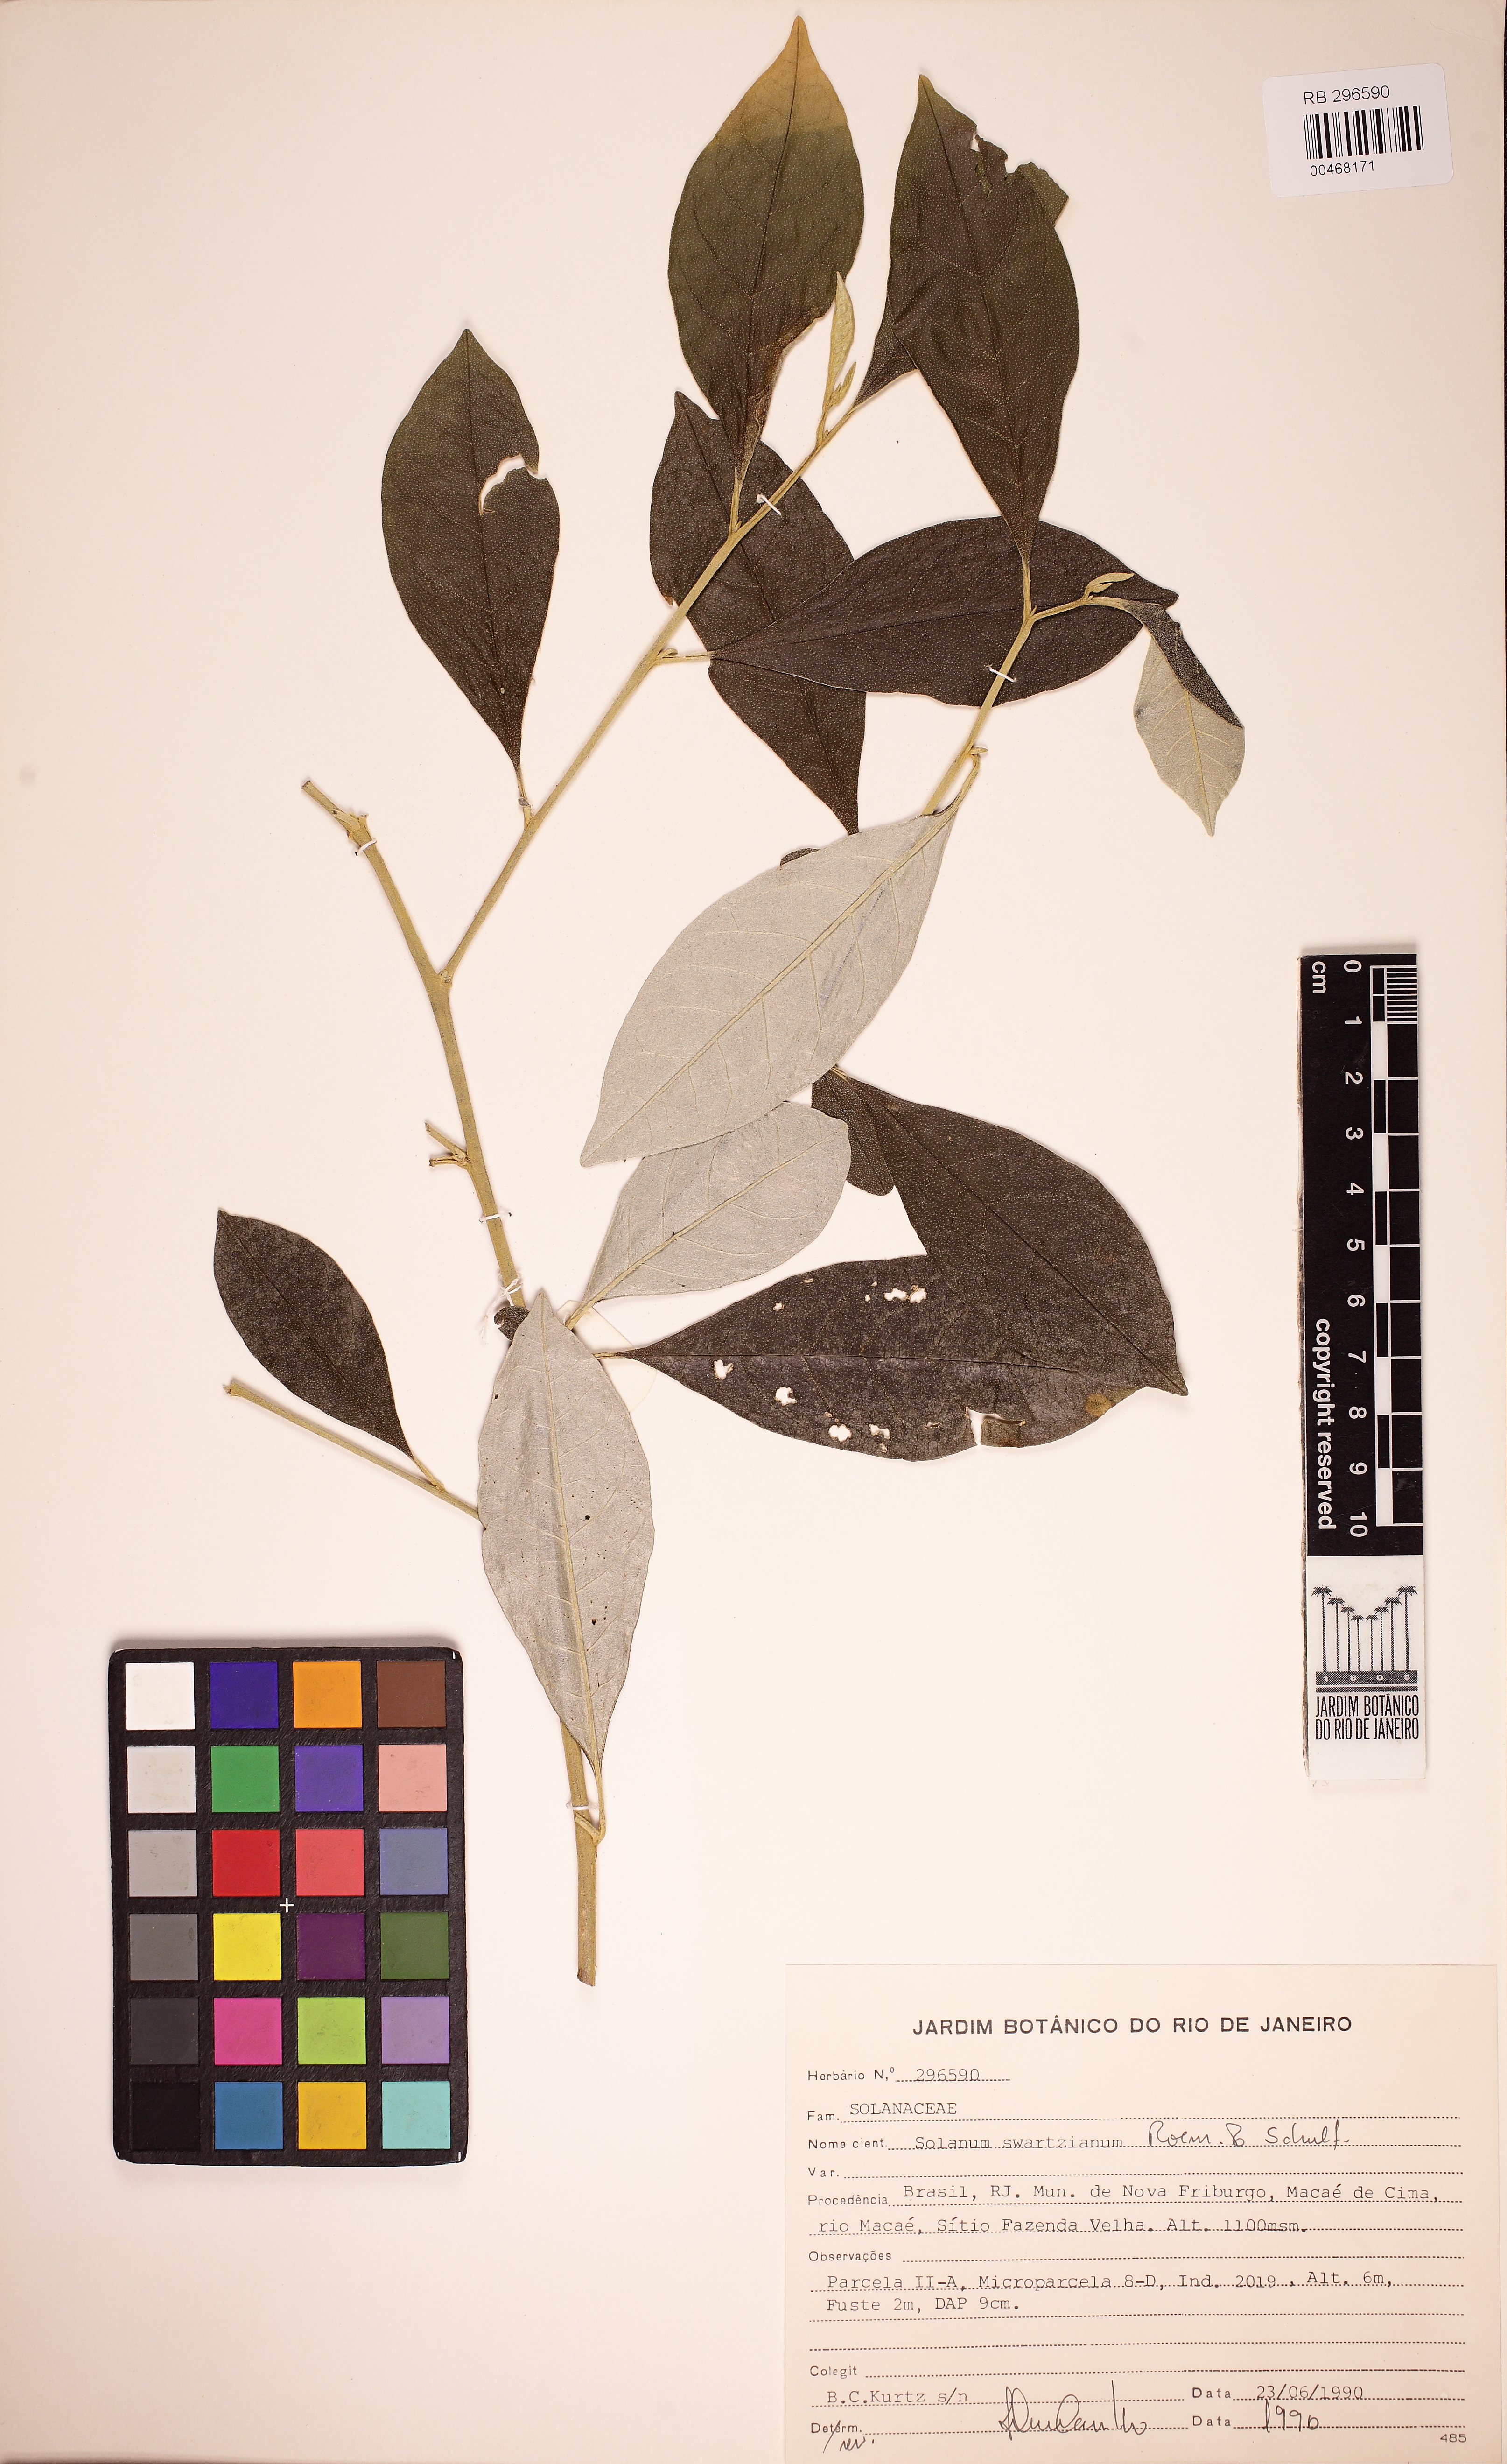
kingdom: Plantae
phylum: Tracheophyta
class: Magnoliopsida
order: Solanales
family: Solanaceae
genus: Solanum
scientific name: Solanum swartzianum
